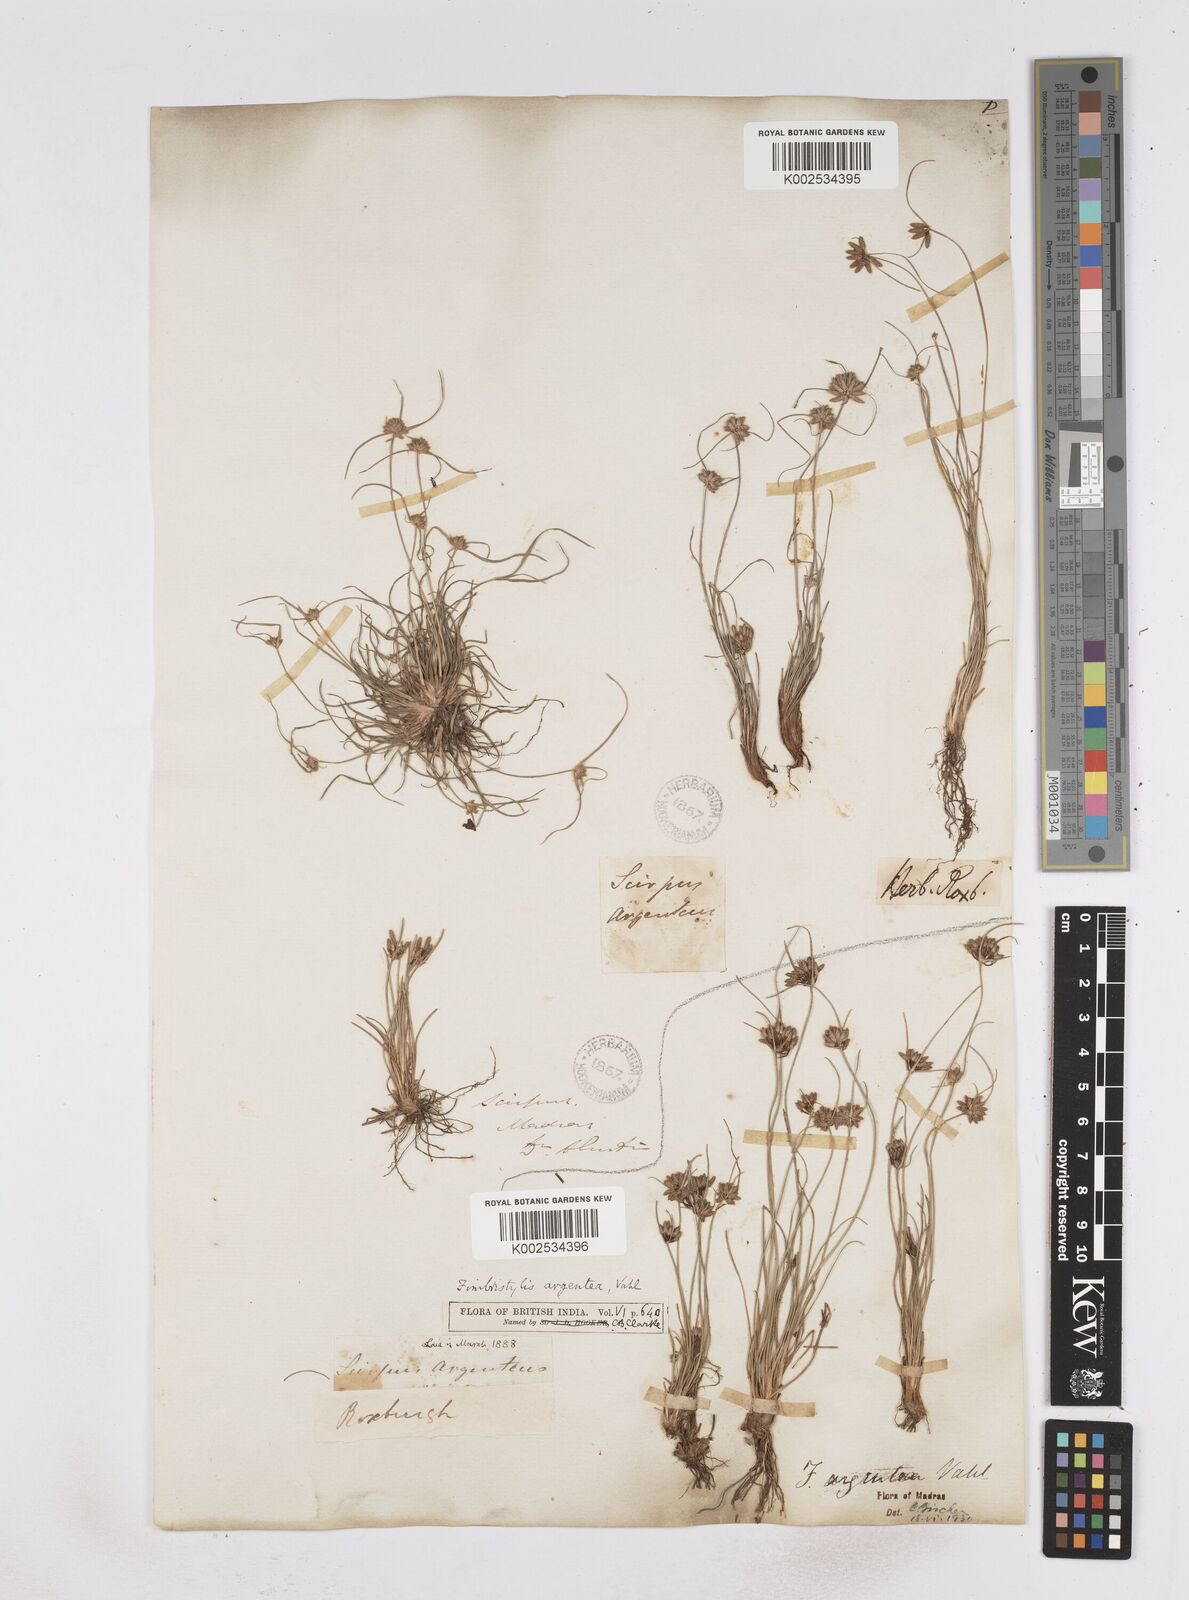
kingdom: Plantae
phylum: Tracheophyta
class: Liliopsida
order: Poales
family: Cyperaceae
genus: Fimbristylis
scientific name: Fimbristylis argentea
